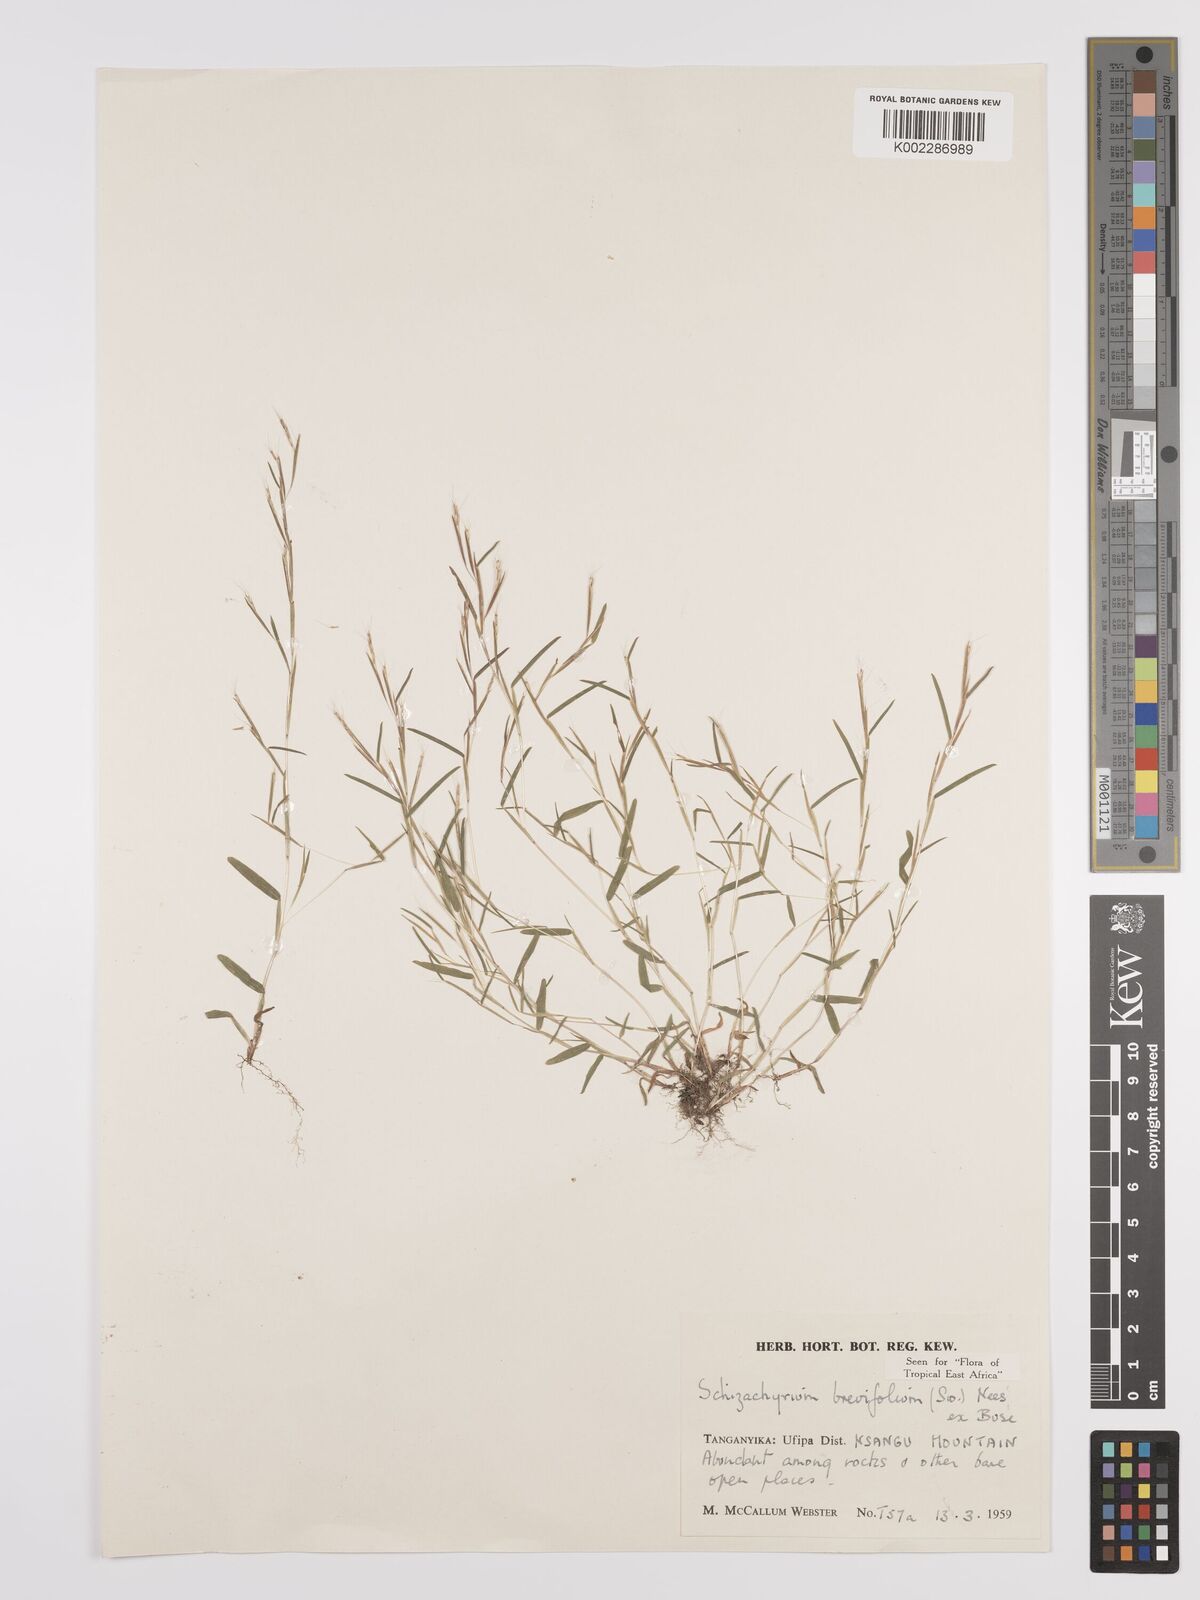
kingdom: Plantae
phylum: Tracheophyta
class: Liliopsida
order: Poales
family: Poaceae
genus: Schizachyrium
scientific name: Schizachyrium brevifolium
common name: Serillo dulce
